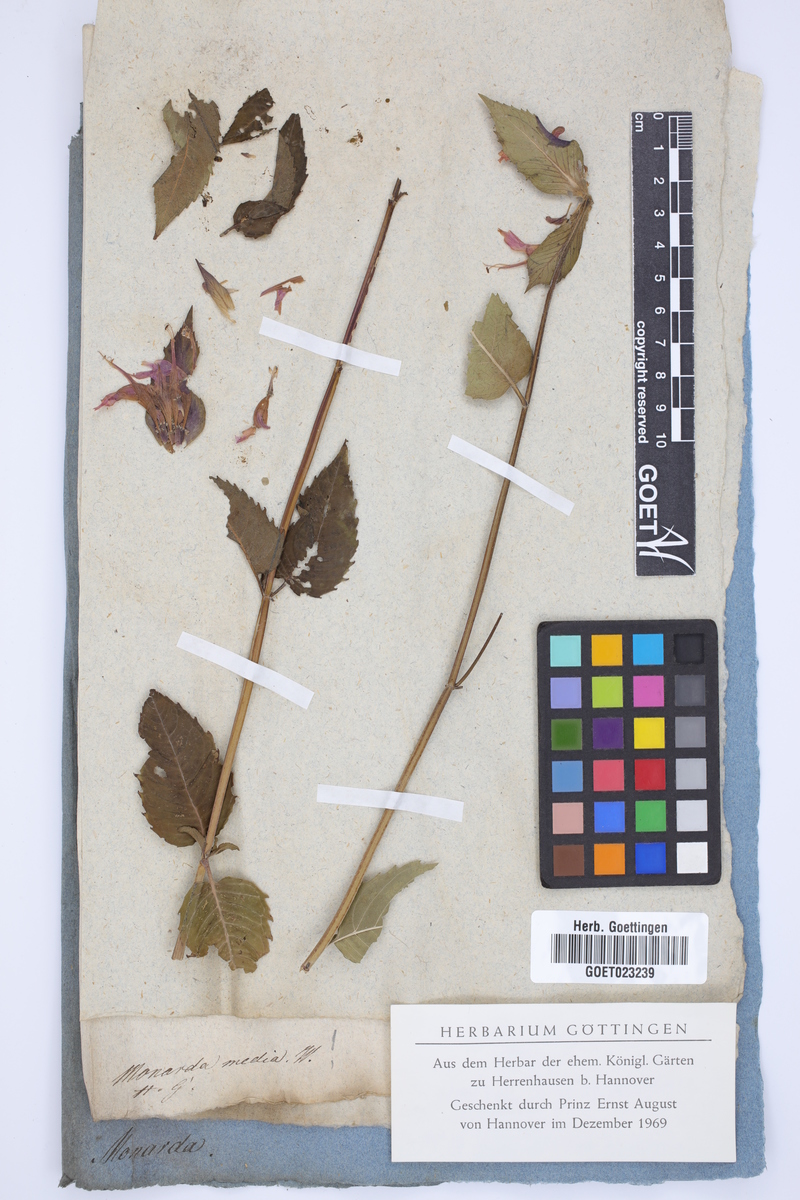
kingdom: Plantae
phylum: Tracheophyta
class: Magnoliopsida
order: Lamiales
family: Lamiaceae
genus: Monarda
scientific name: Monarda media
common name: Purple bergamot
